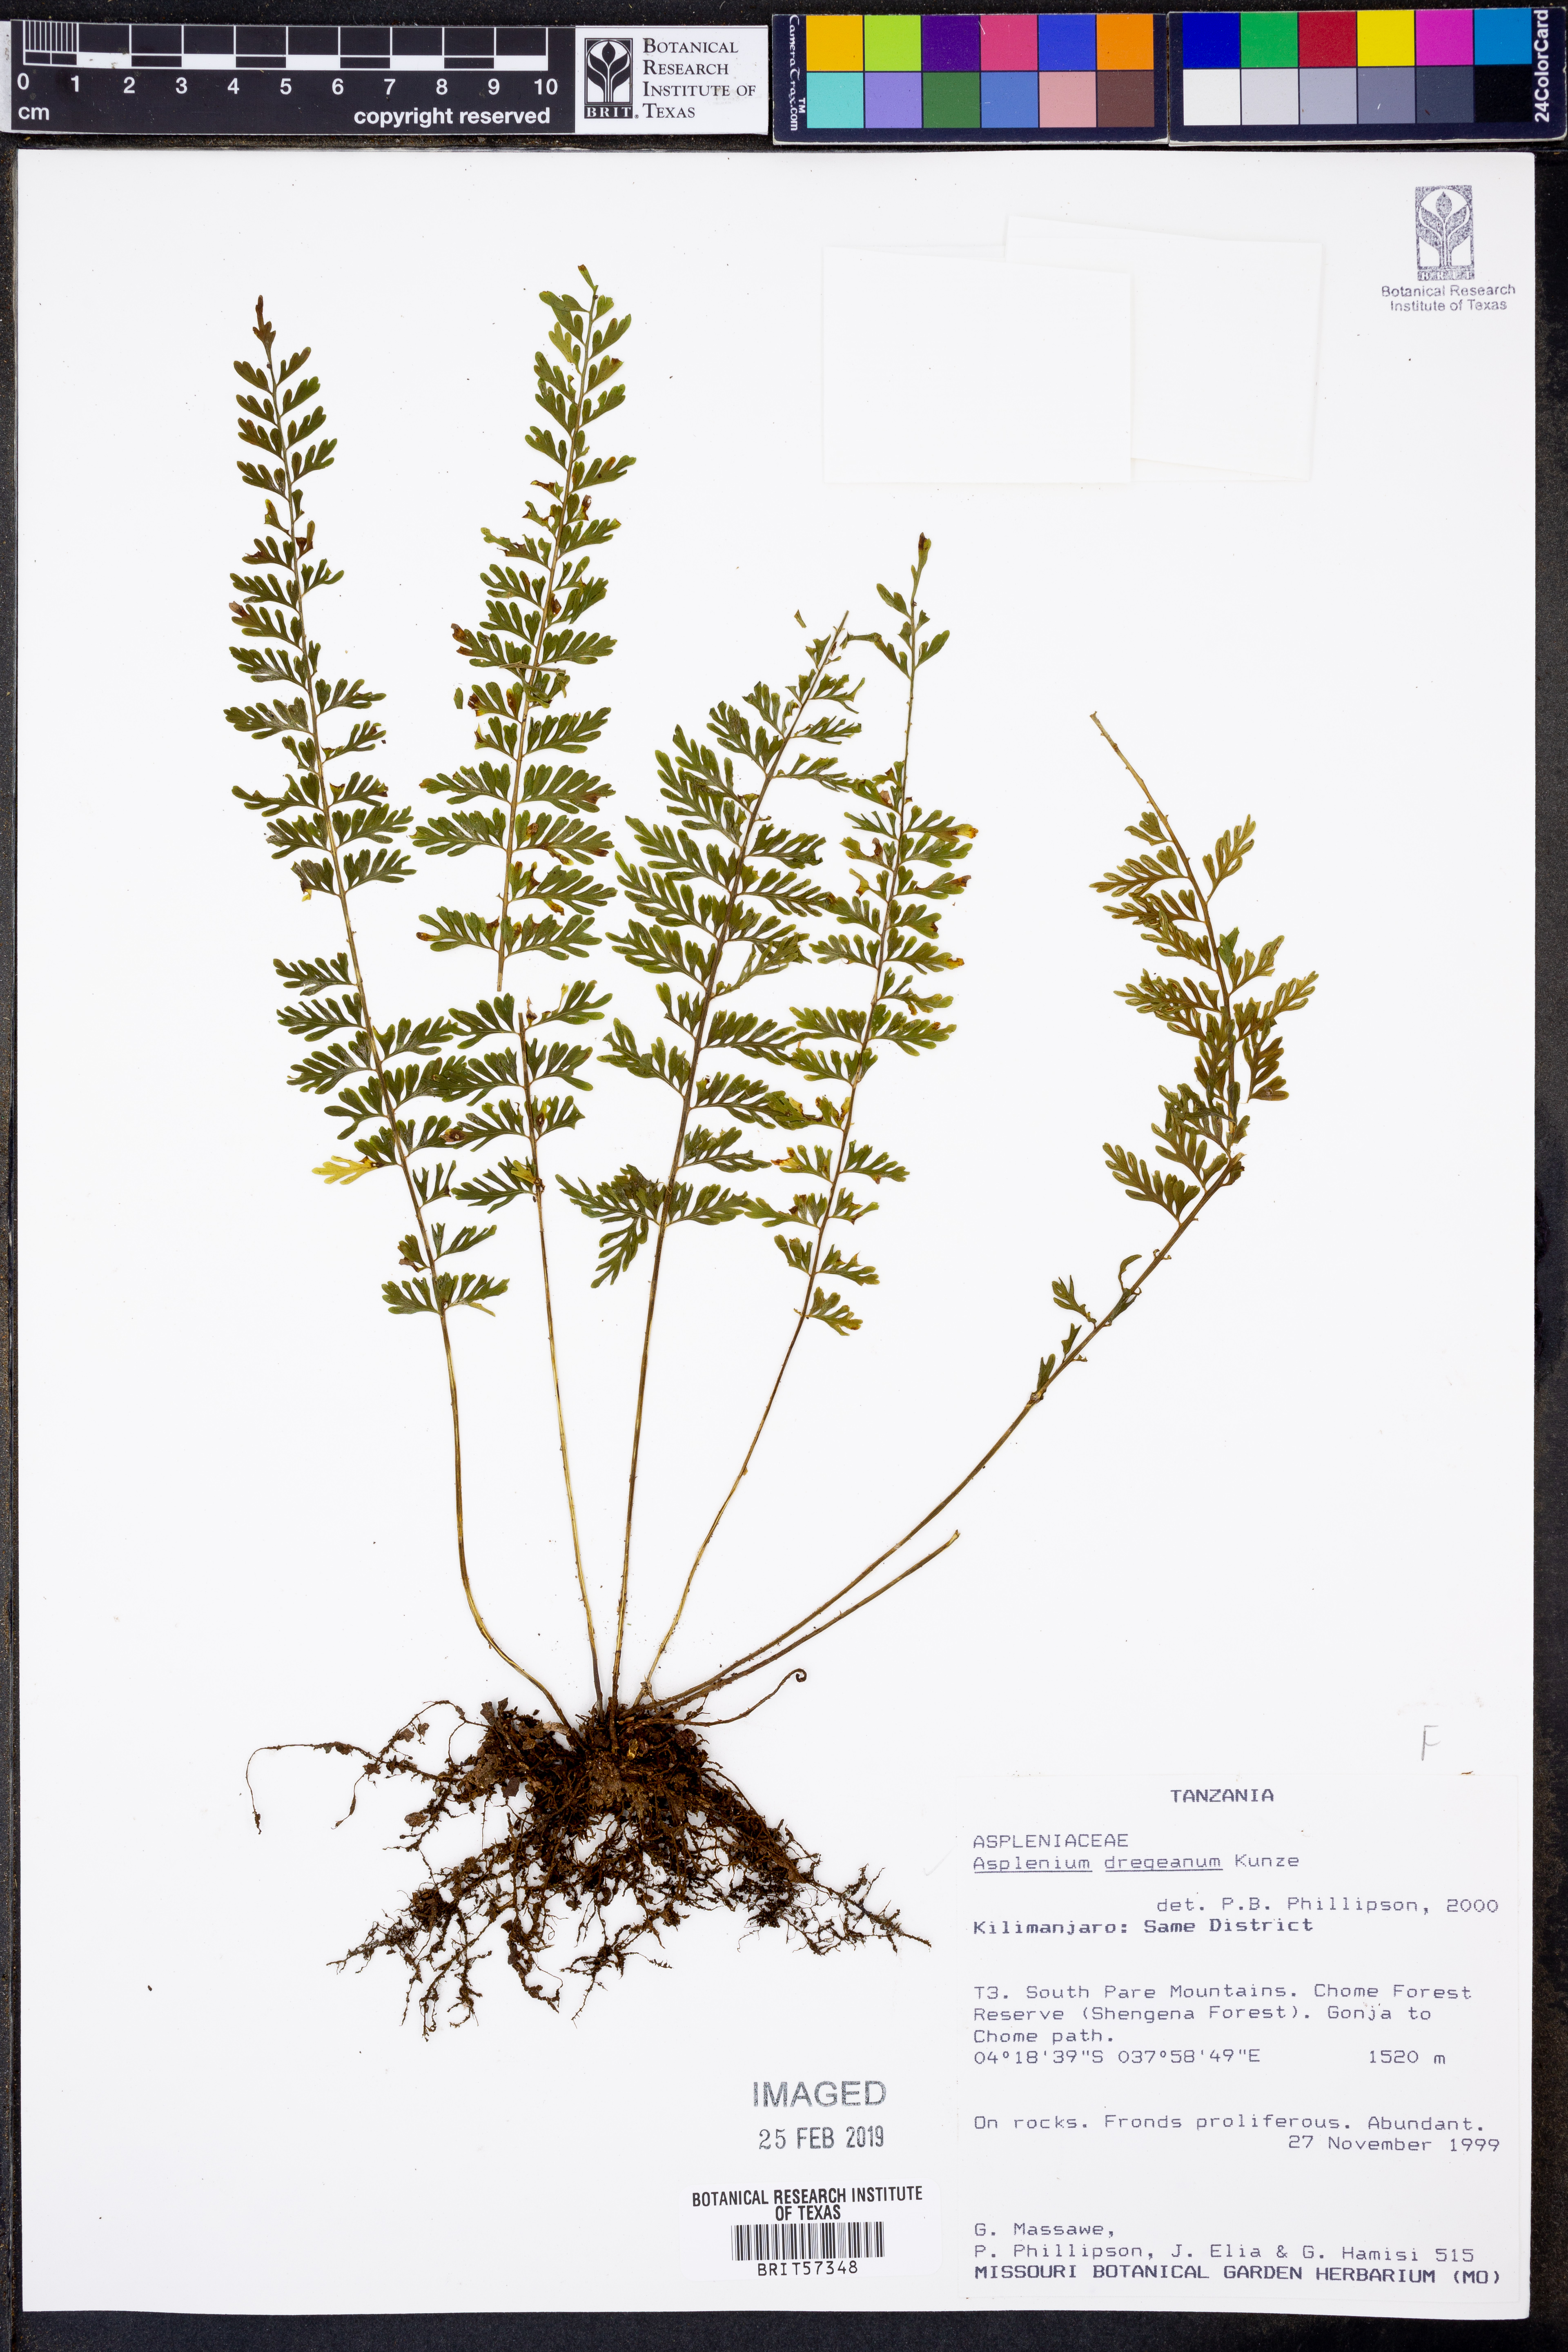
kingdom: Plantae
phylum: Tracheophyta
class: Polypodiopsida
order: Polypodiales
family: Aspleniaceae
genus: Asplenium
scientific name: Asplenium dregeanum
